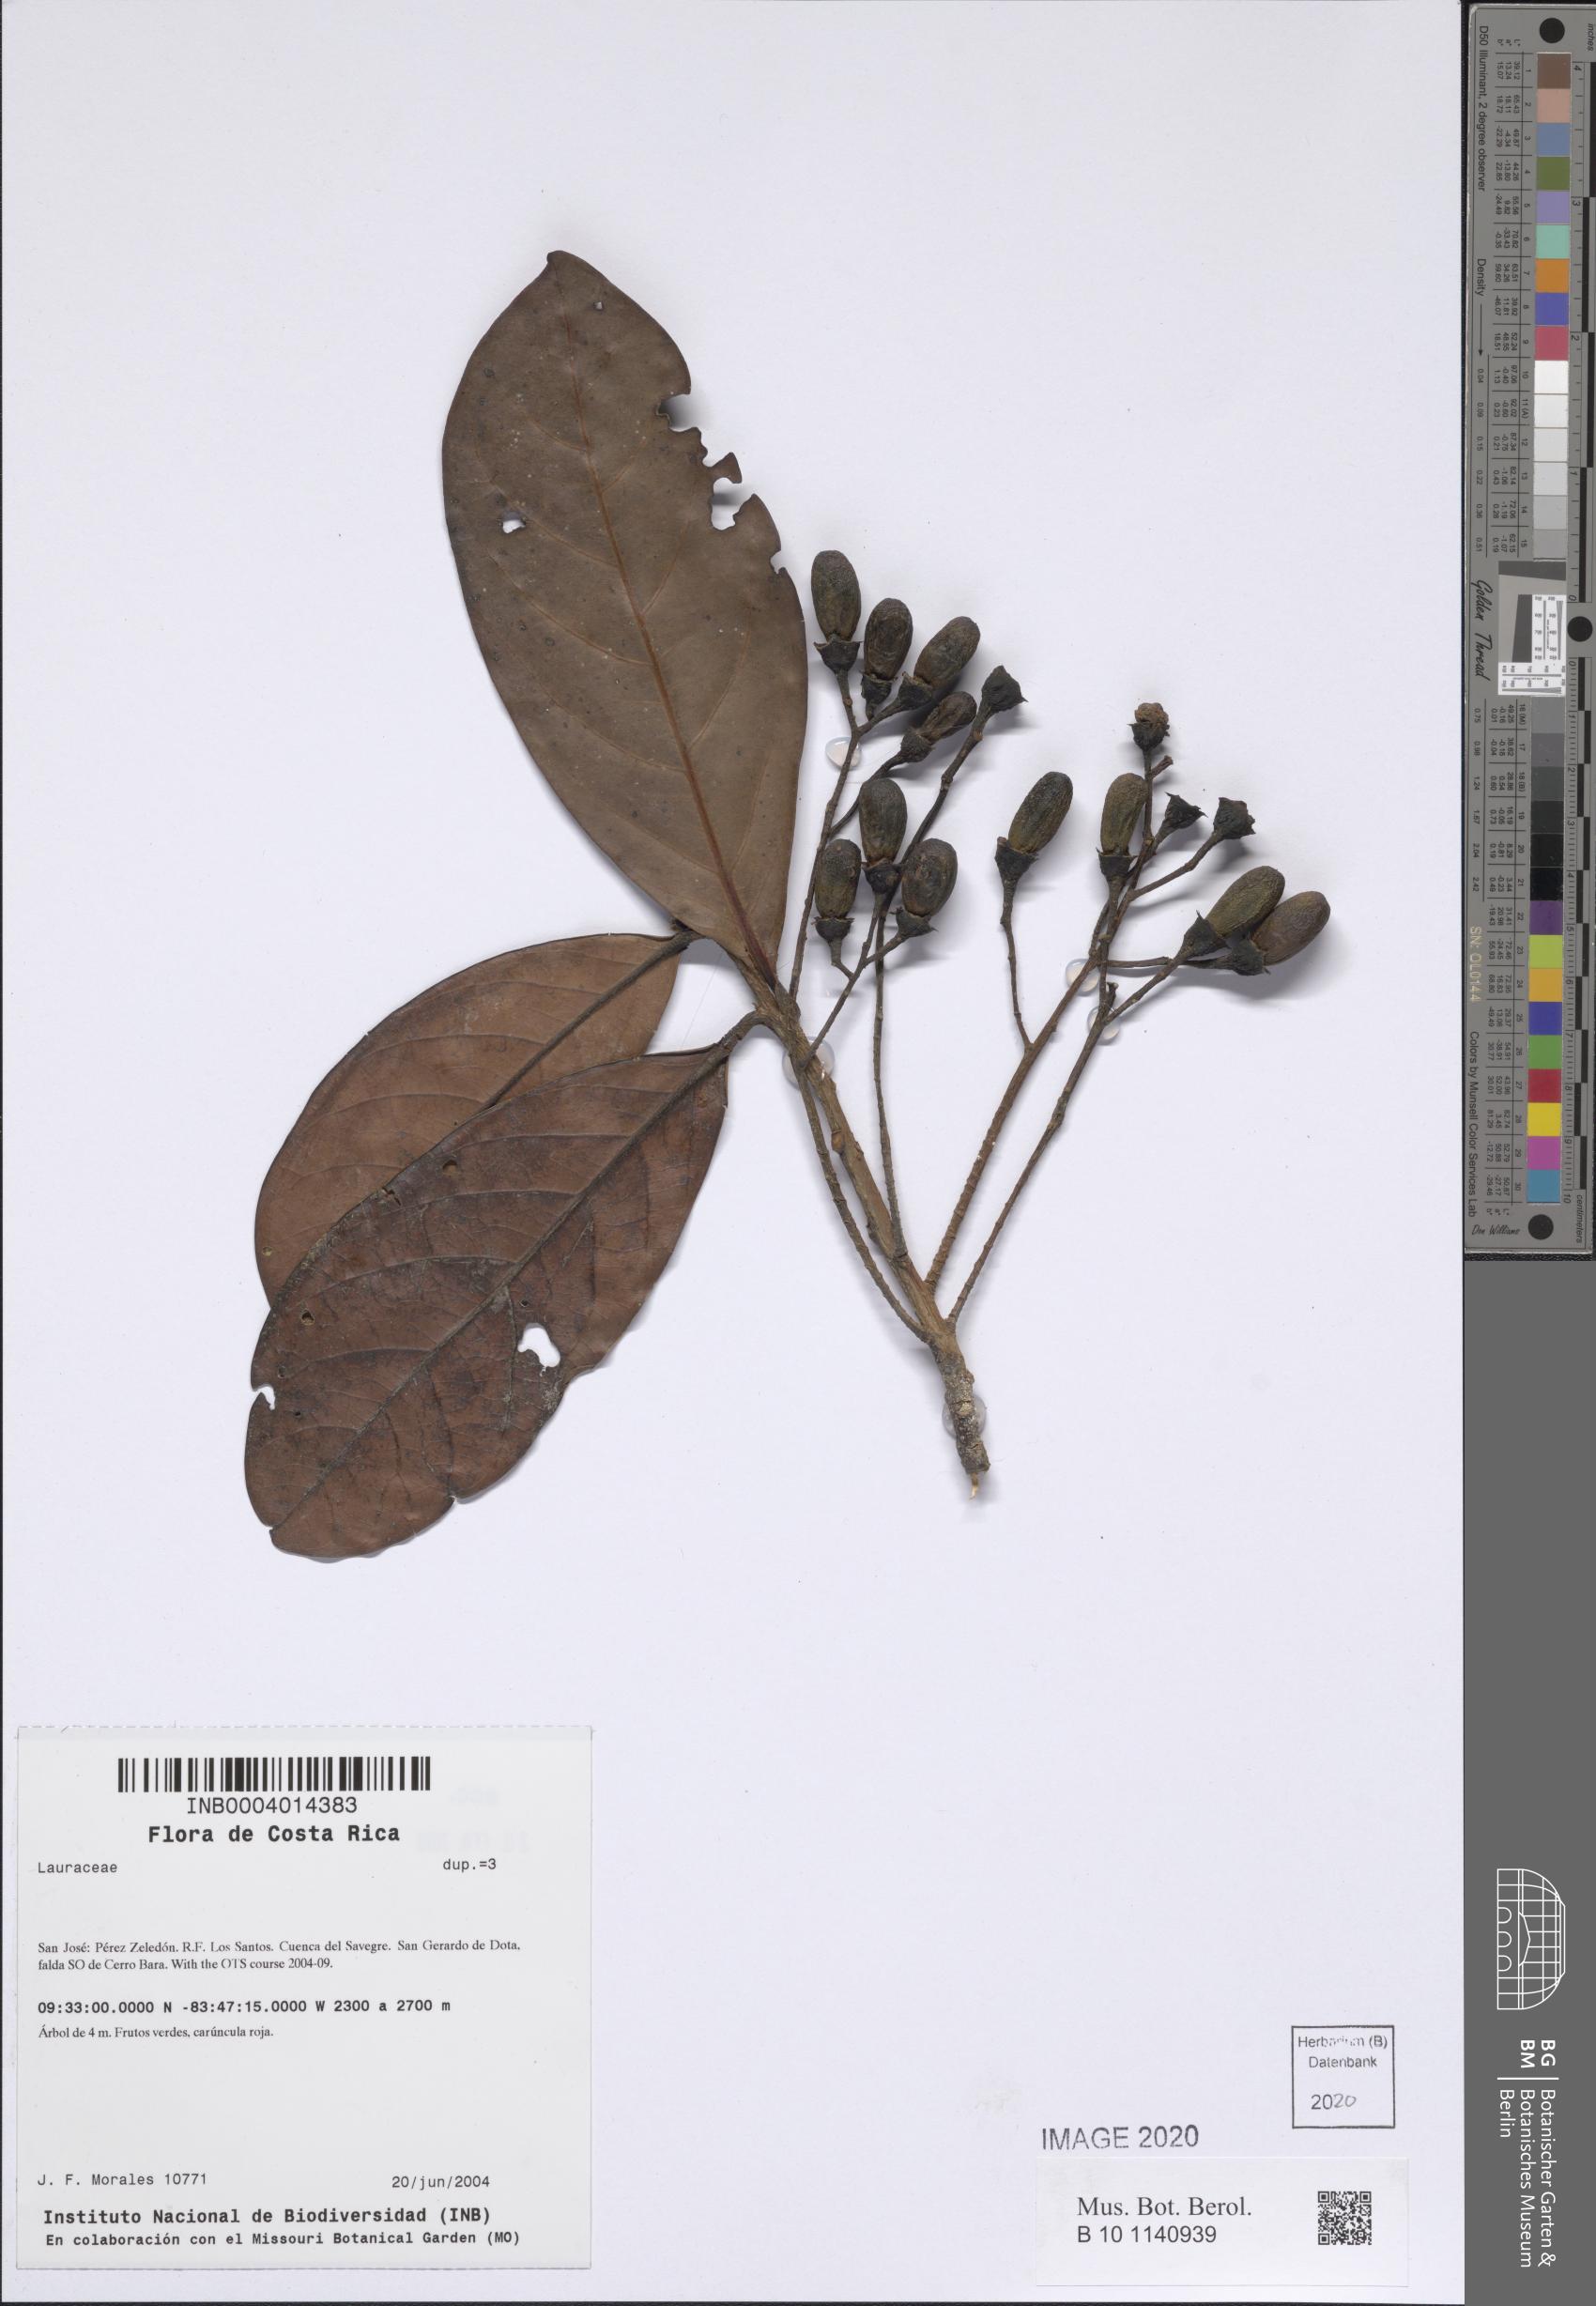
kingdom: Plantae
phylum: Tracheophyta
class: Magnoliopsida
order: Laurales
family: Lauraceae
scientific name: Lauraceae
